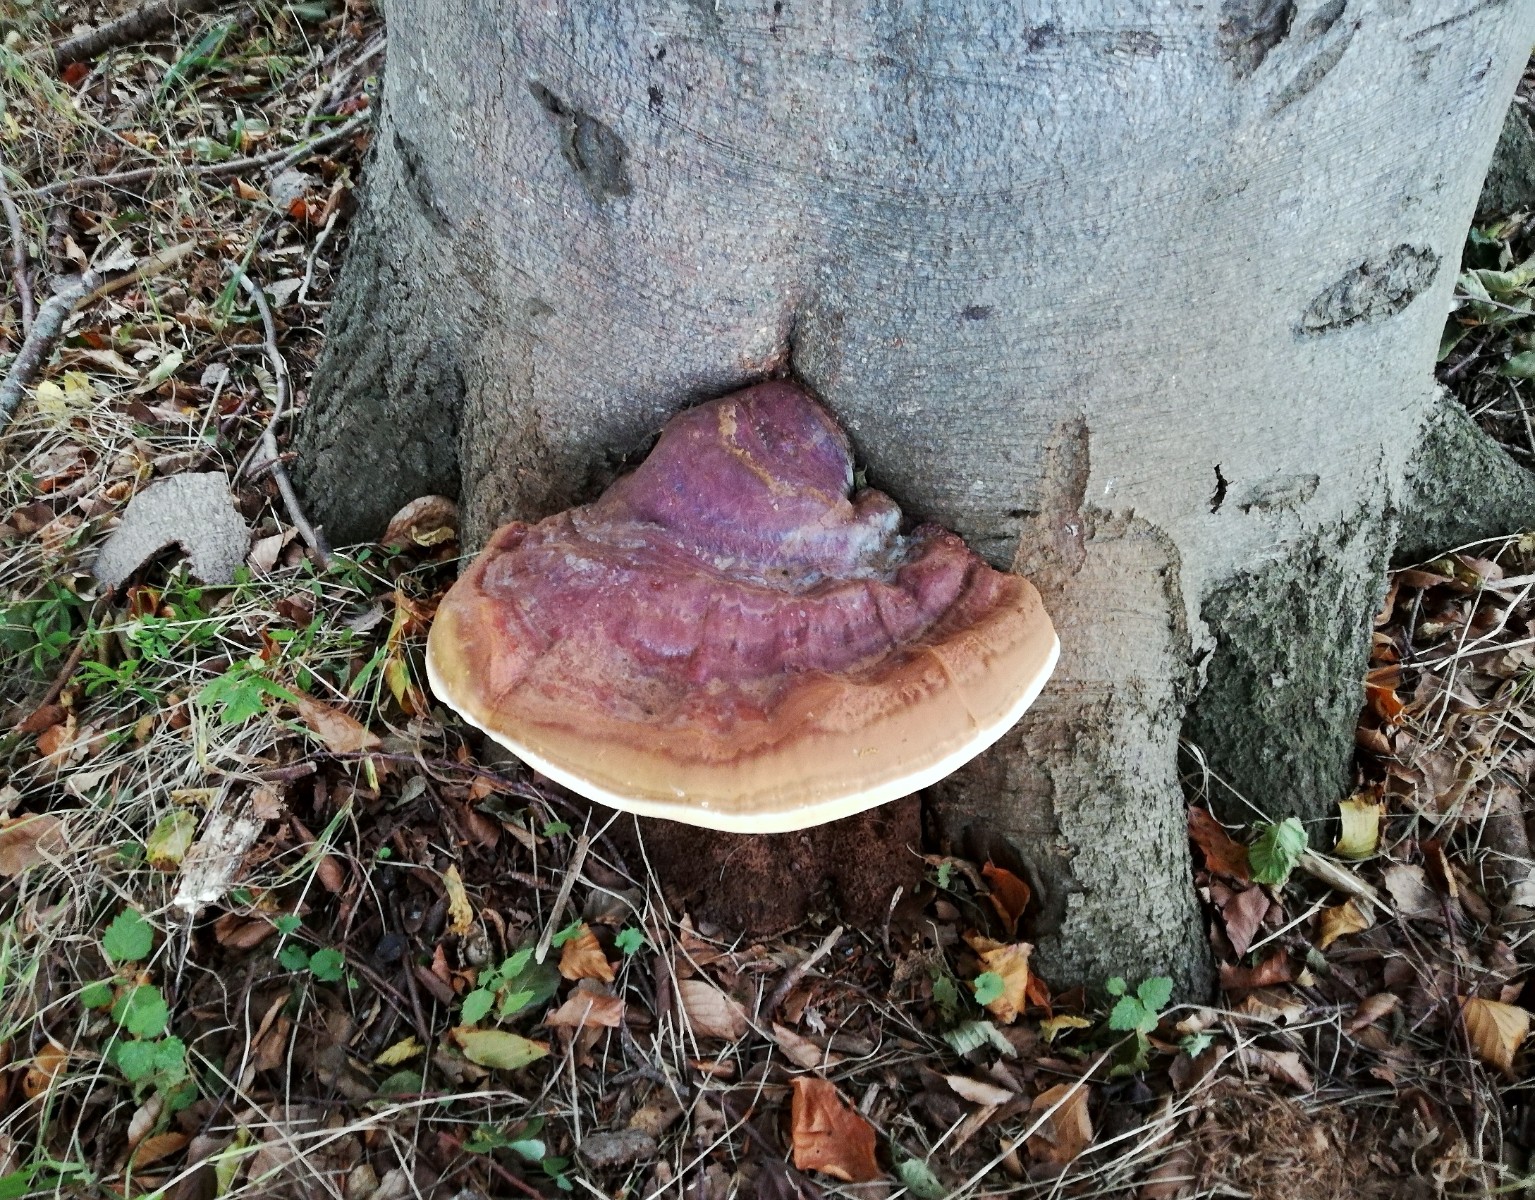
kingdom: Fungi
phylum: Basidiomycota
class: Agaricomycetes
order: Polyporales
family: Polyporaceae
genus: Ganoderma
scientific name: Ganoderma resinaceum
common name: gyldenbrun lakporesvamp
